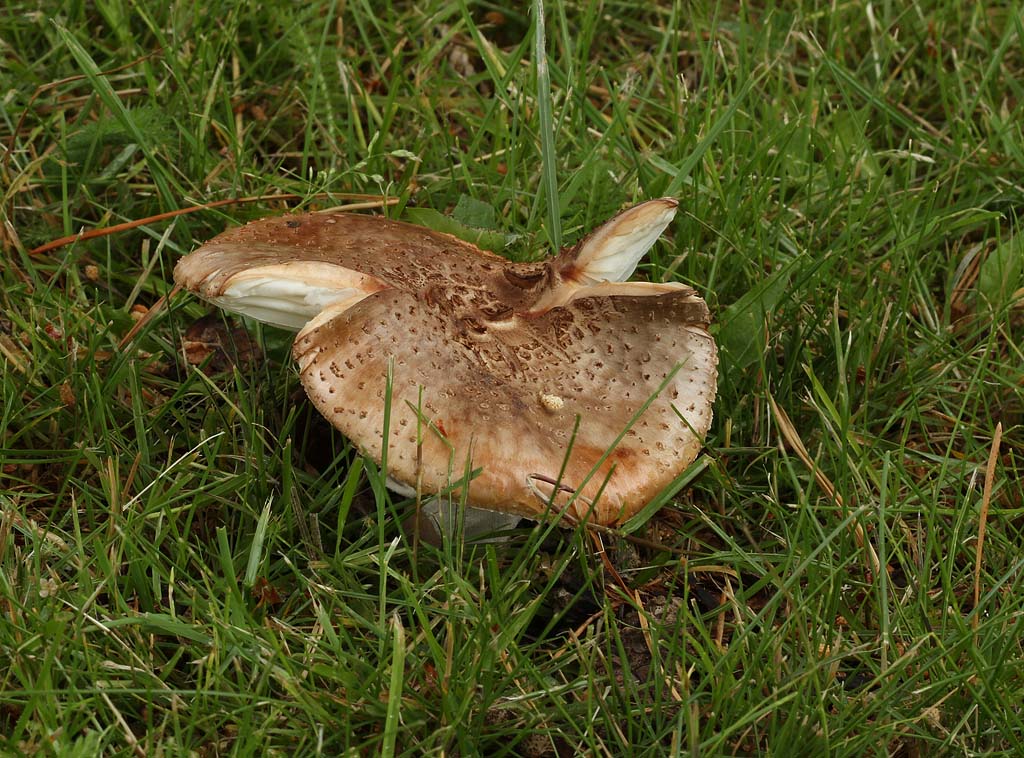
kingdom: Fungi
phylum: Basidiomycota
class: Agaricomycetes
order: Agaricales
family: Amanitaceae
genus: Amanita
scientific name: Amanita rubescens
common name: rødmende fluesvamp
